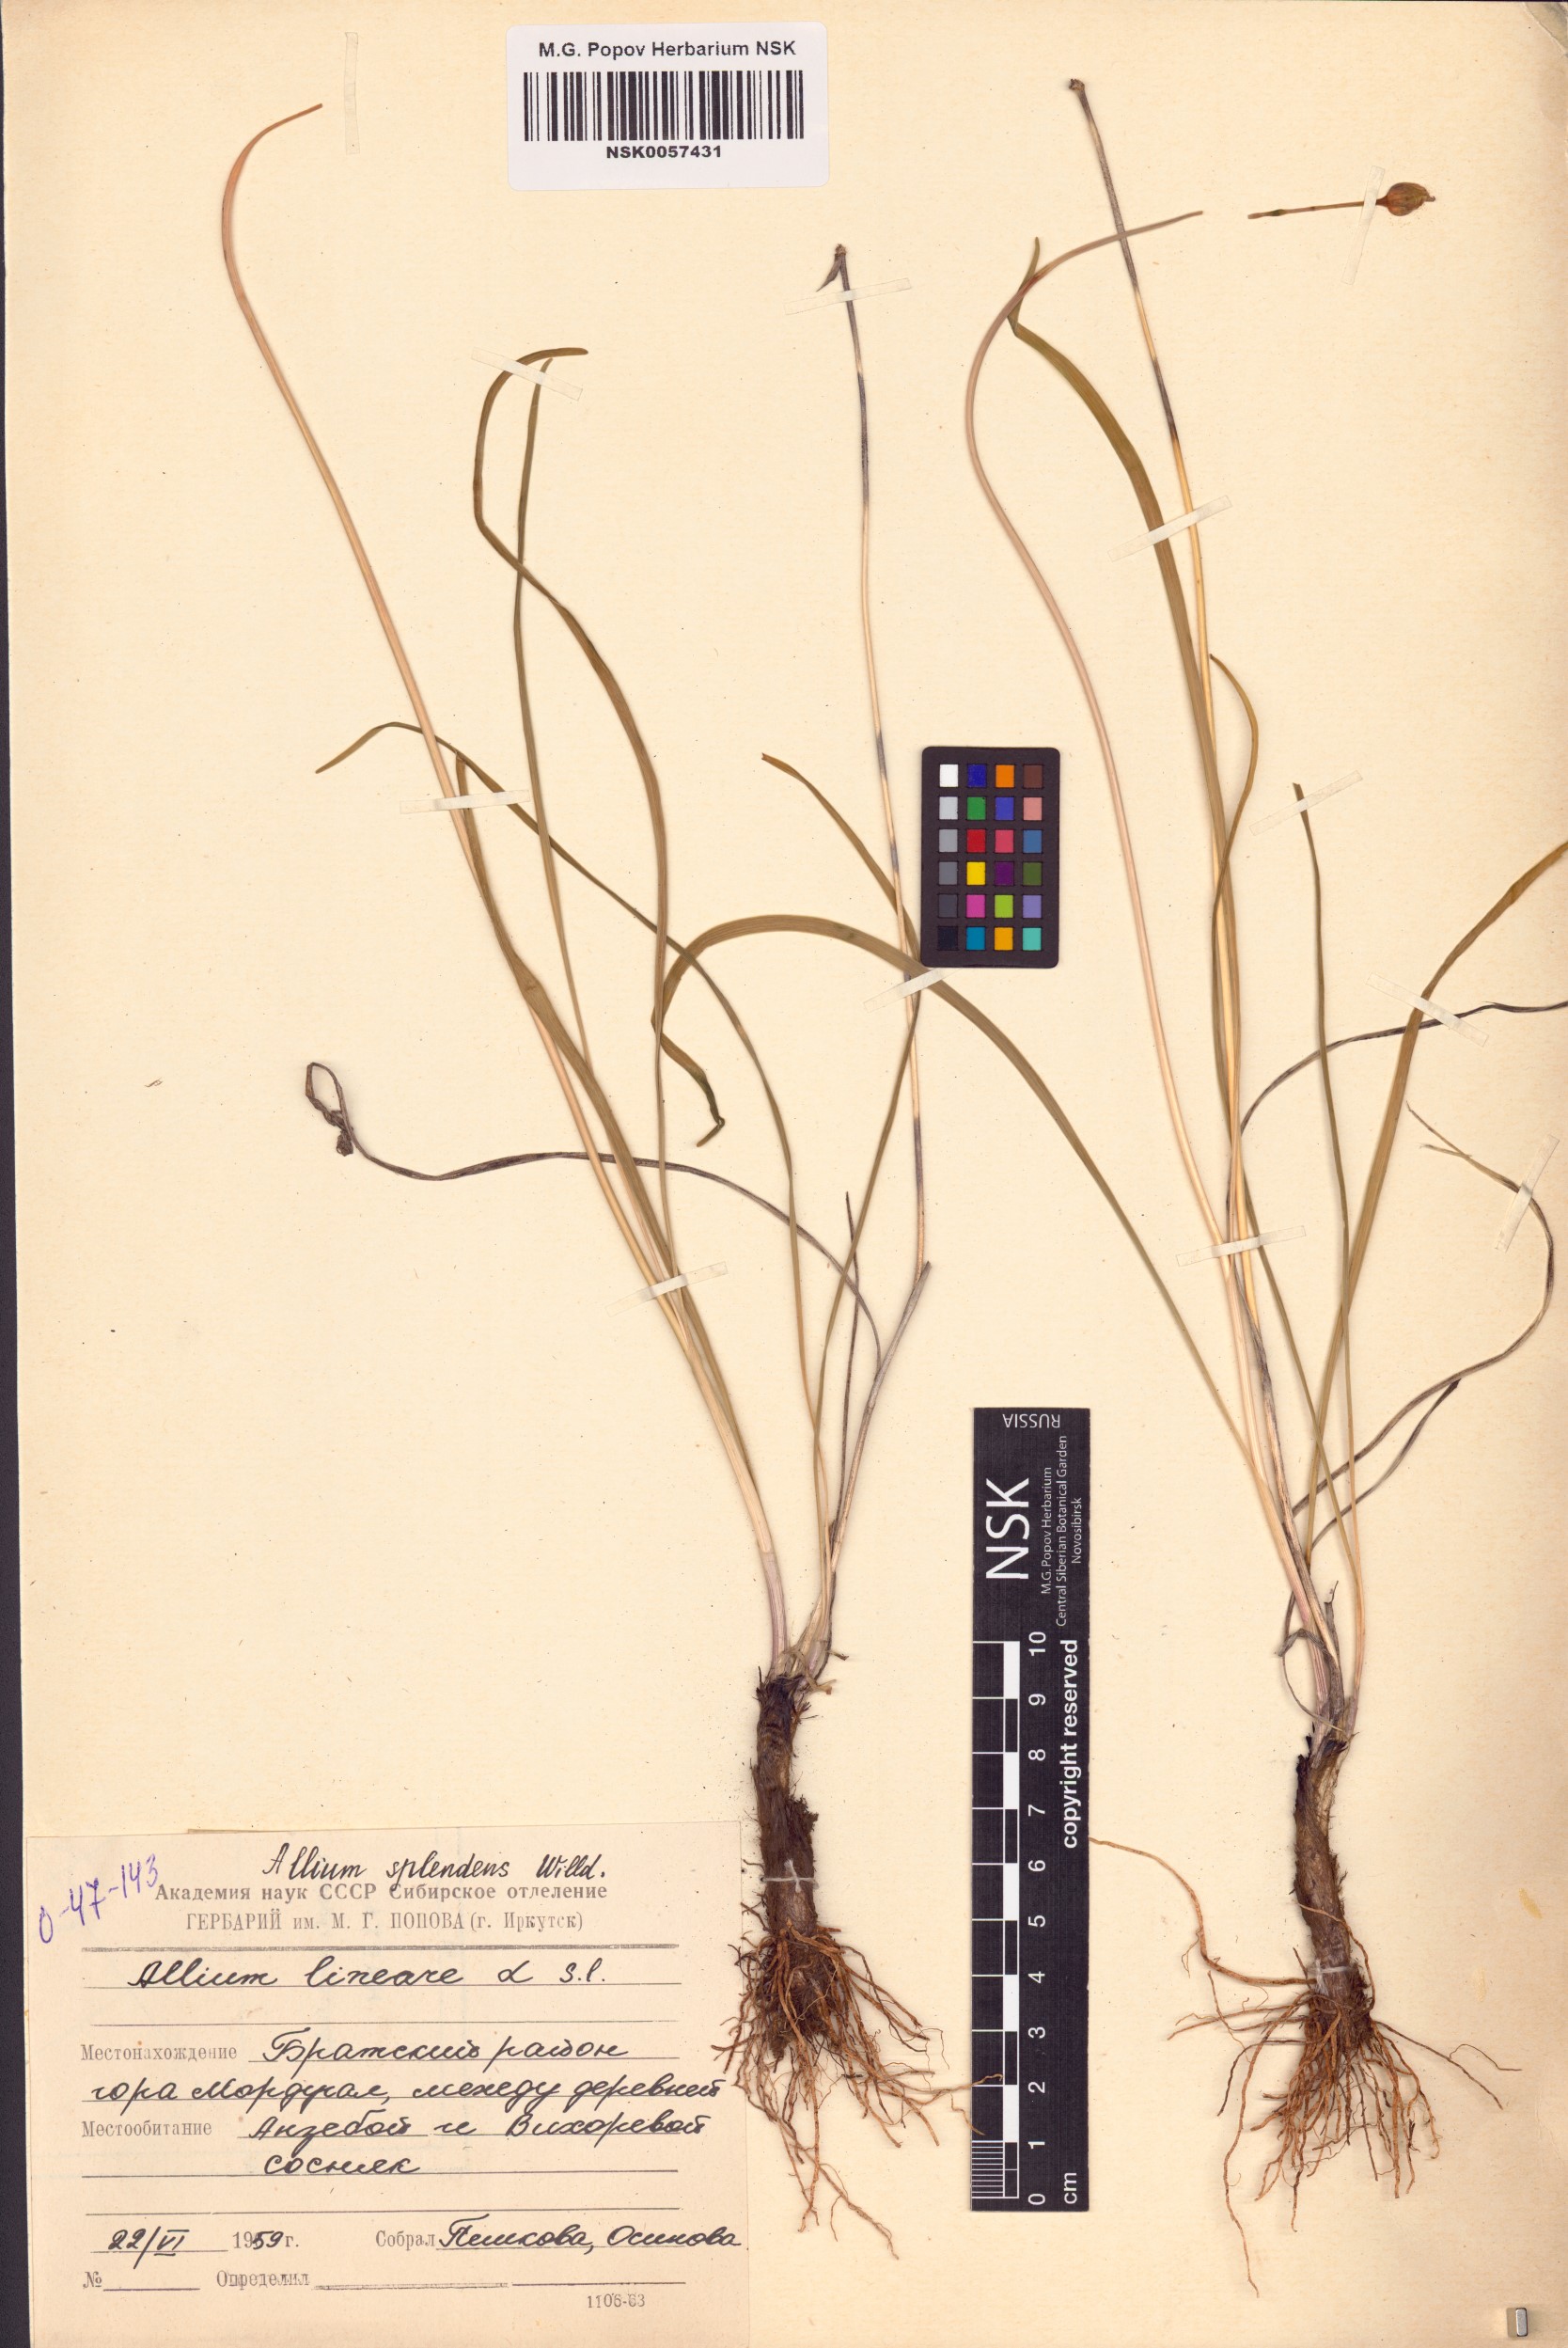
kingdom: Plantae
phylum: Tracheophyta
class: Liliopsida
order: Asparagales
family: Amaryllidaceae
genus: Allium
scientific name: Allium splendens
